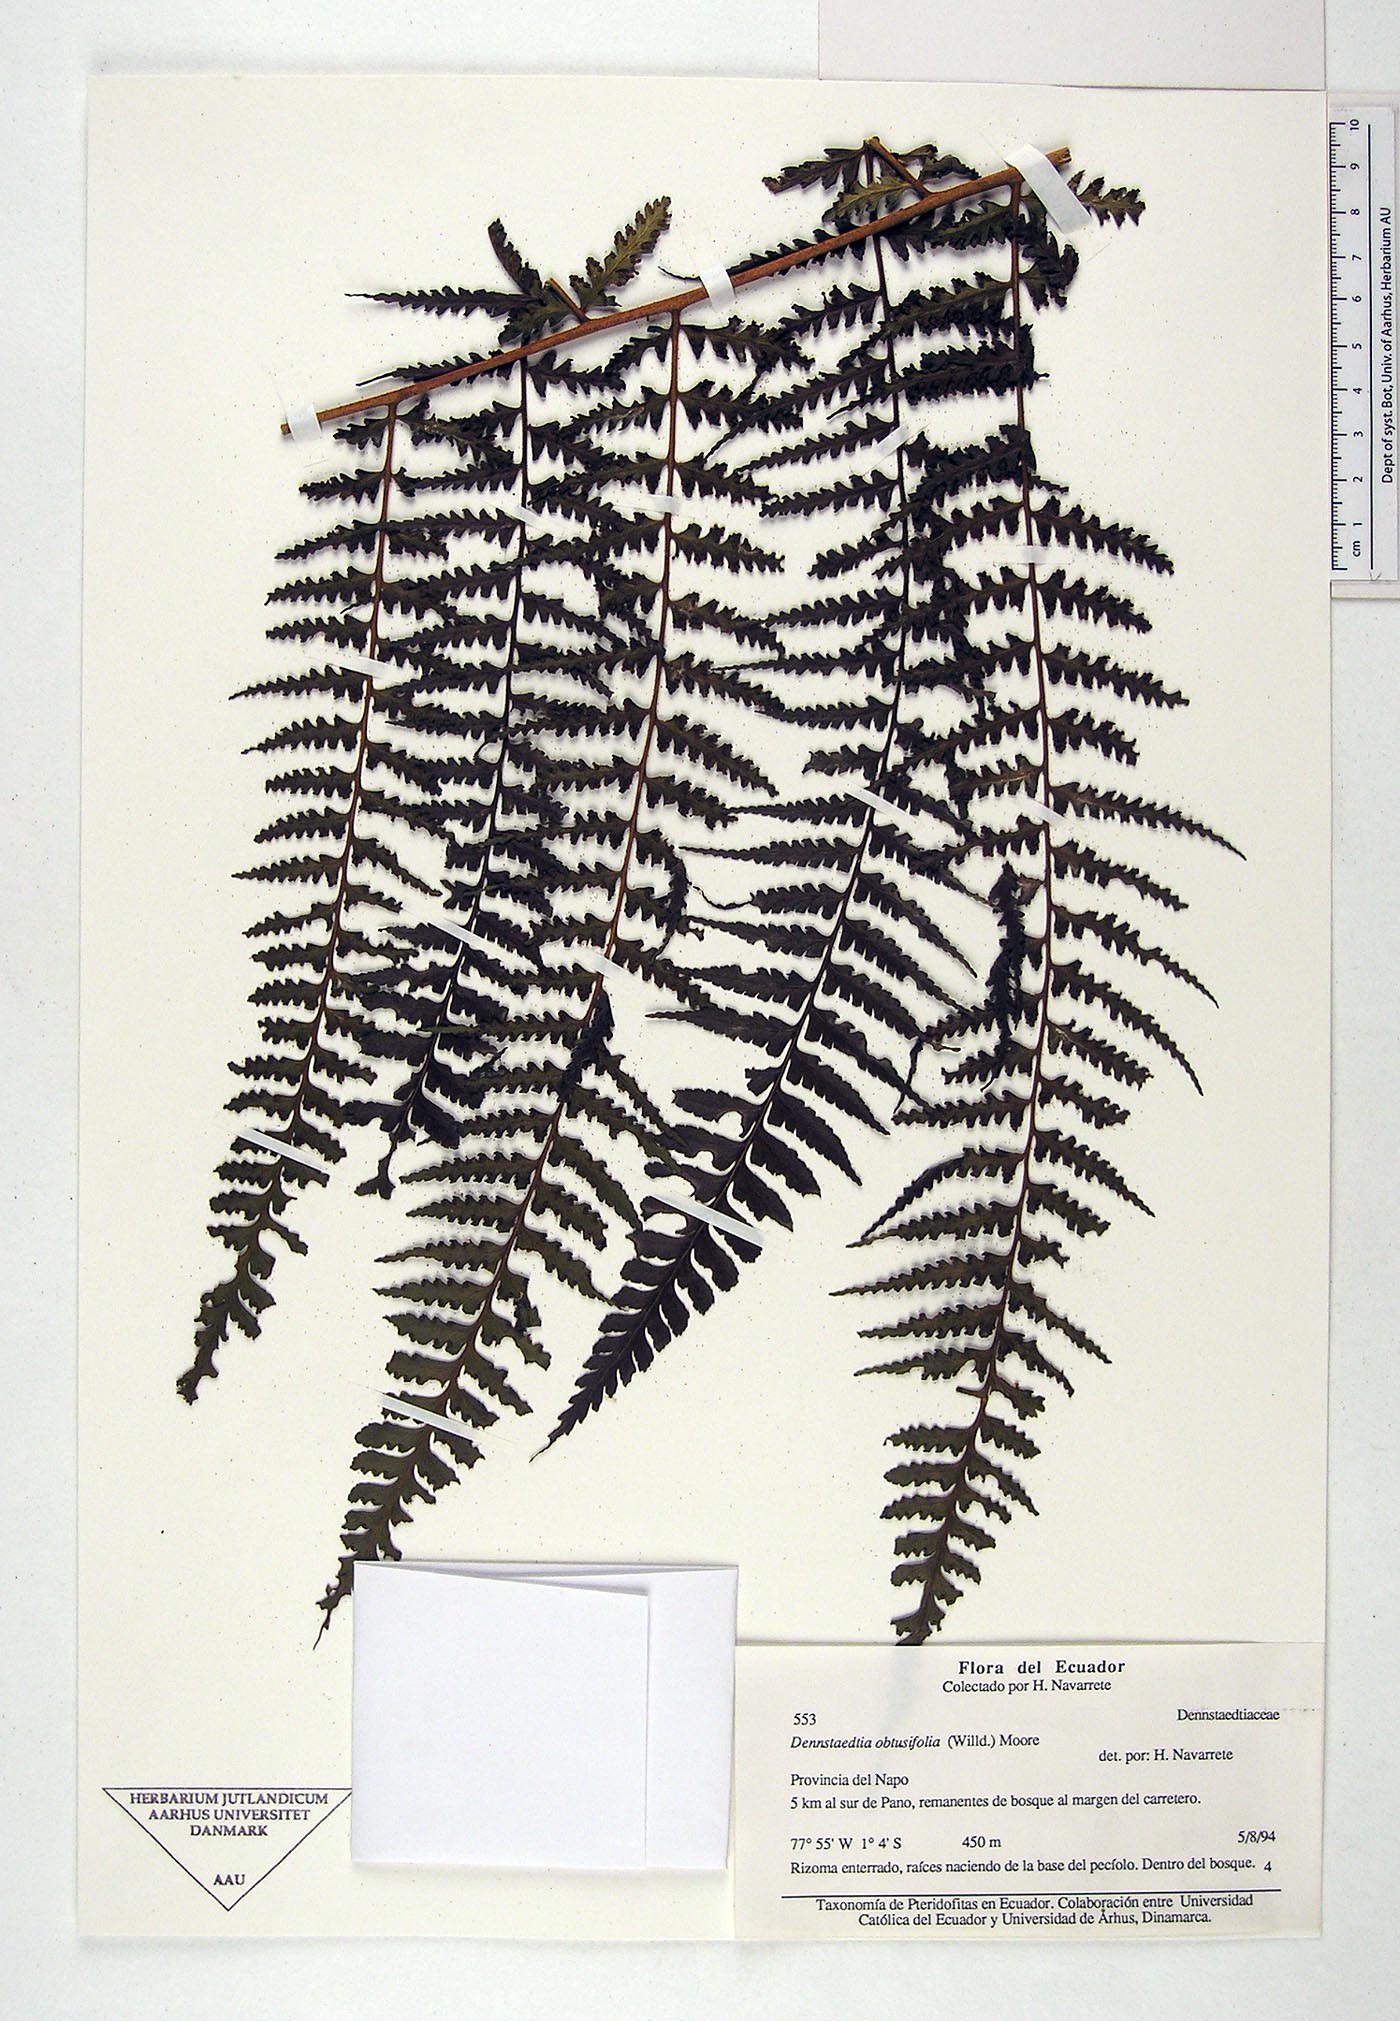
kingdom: Plantae
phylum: Tracheophyta
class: Polypodiopsida
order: Polypodiales
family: Dennstaedtiaceae
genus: Dennstaedtia
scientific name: Dennstaedtia obtusifolia
